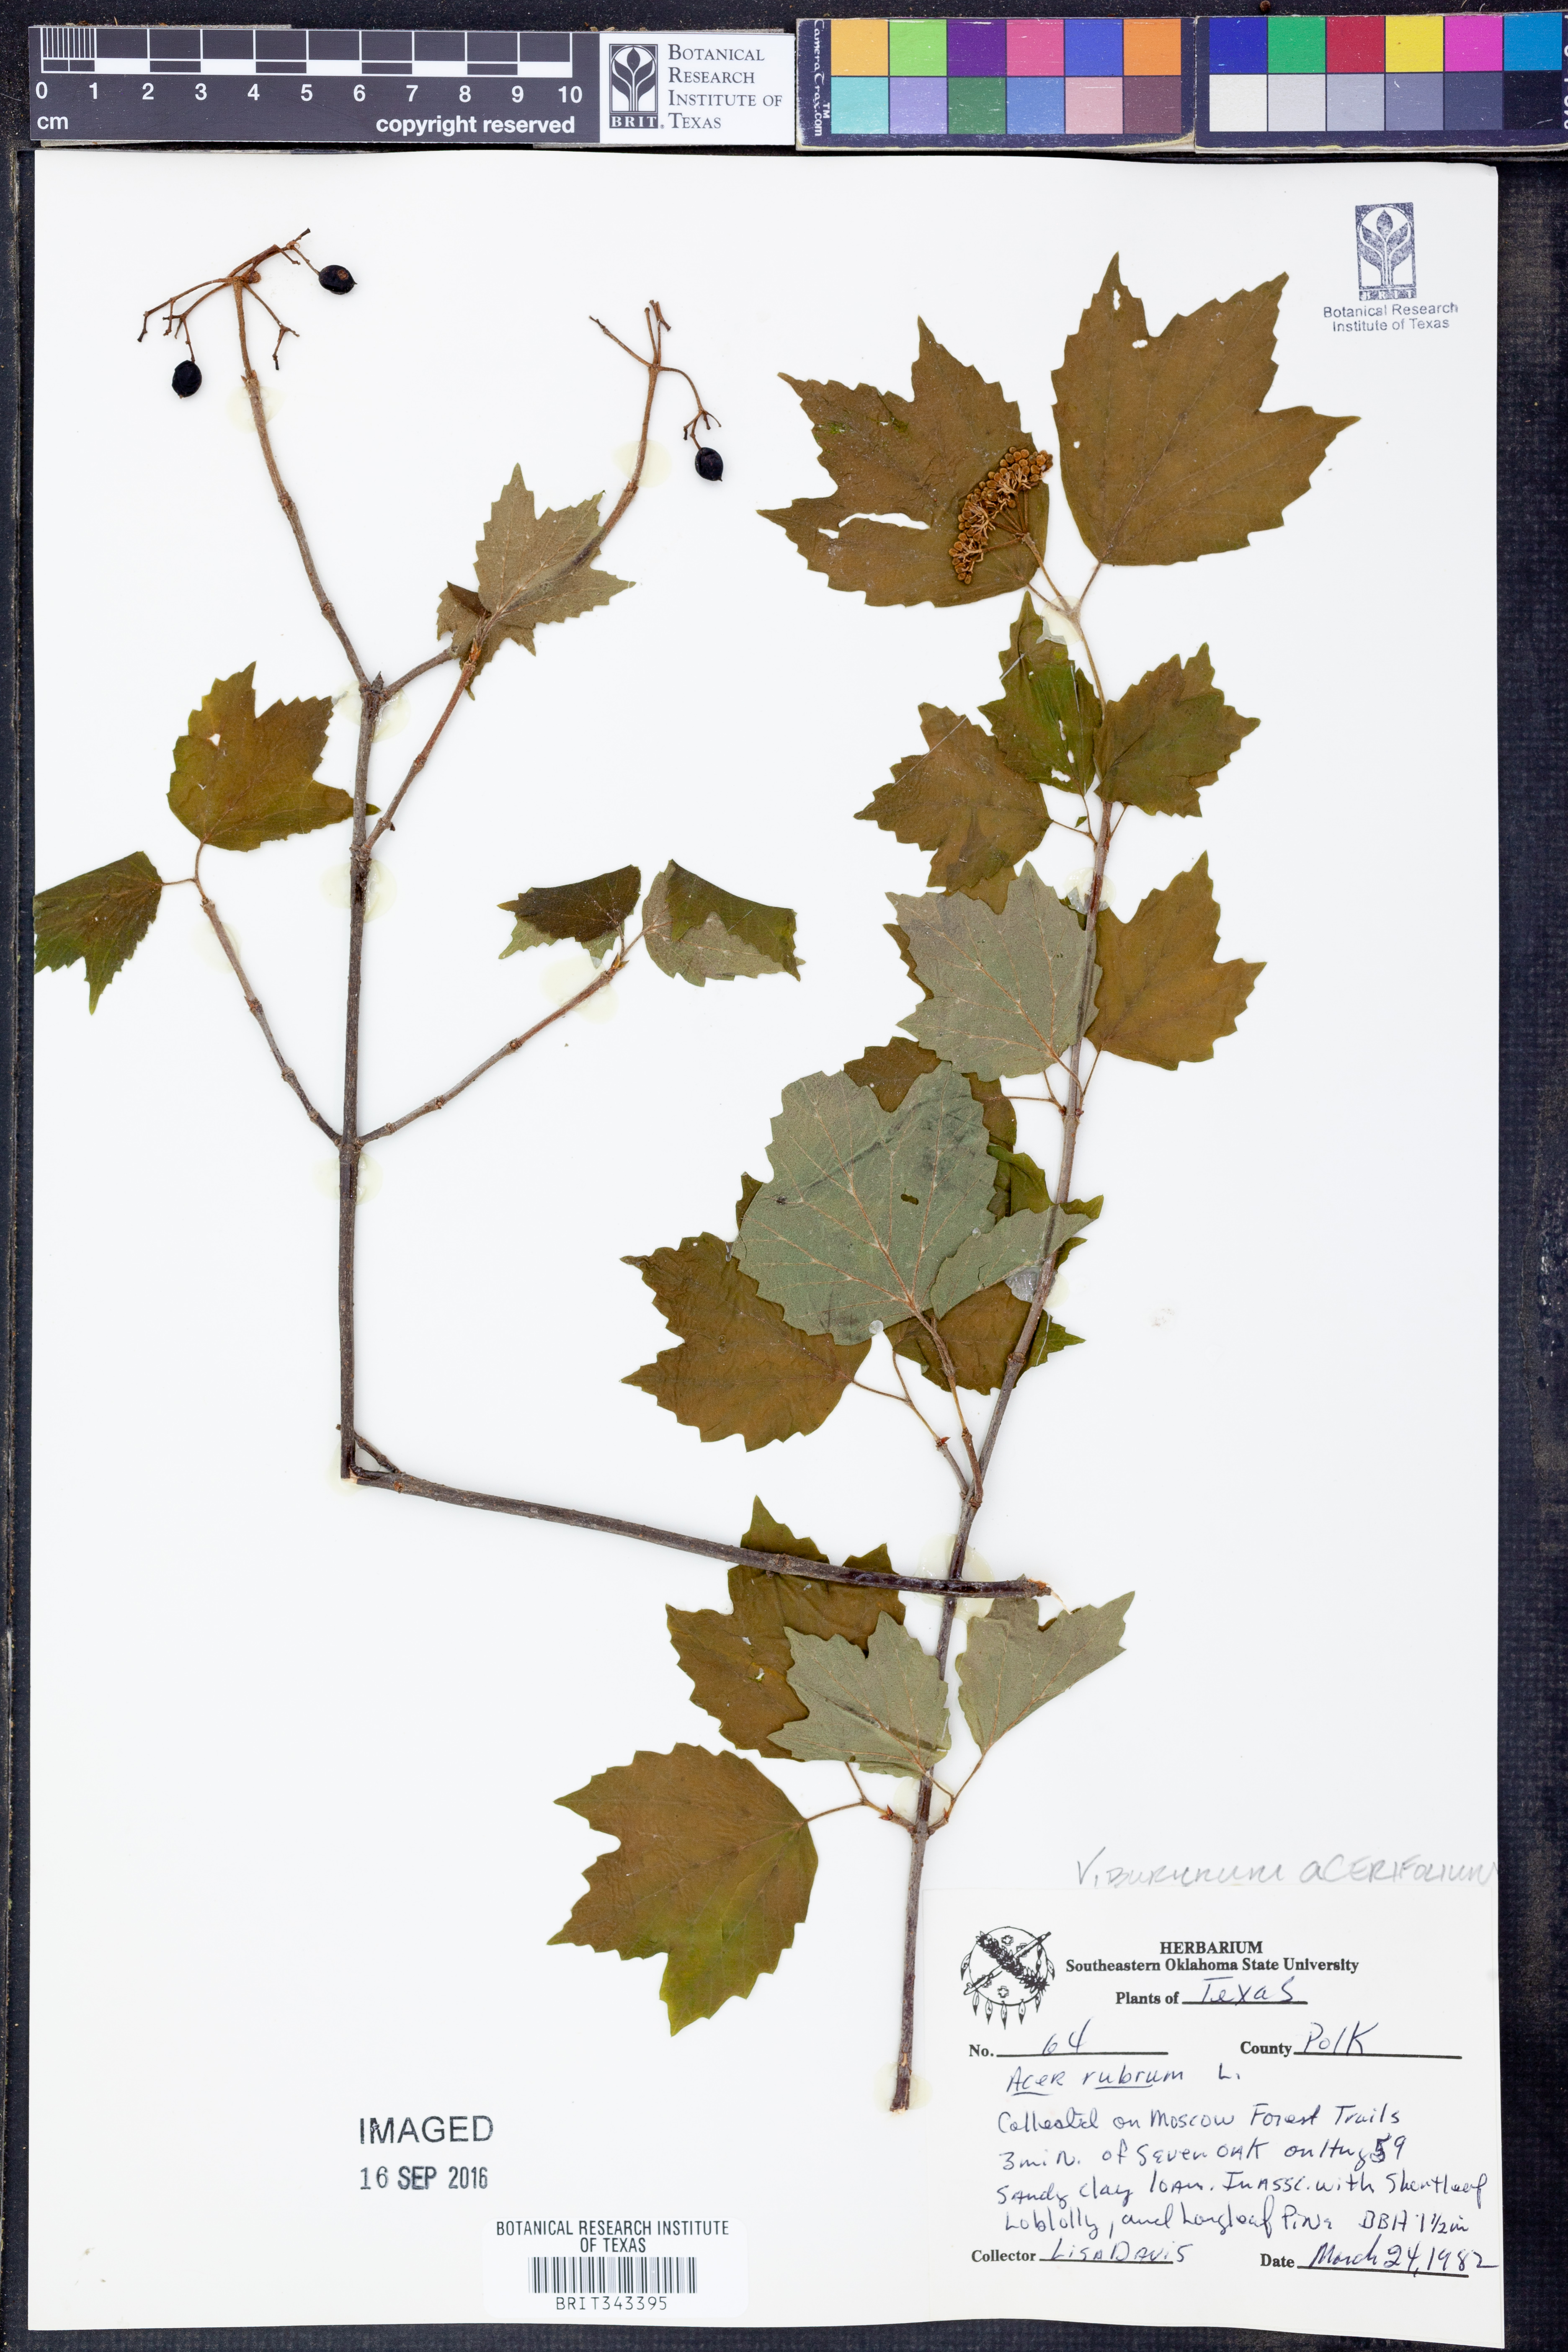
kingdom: Plantae
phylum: Tracheophyta
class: Magnoliopsida
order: Dipsacales
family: Viburnaceae
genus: Viburnum
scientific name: Viburnum acerifolium
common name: Dockmackie
